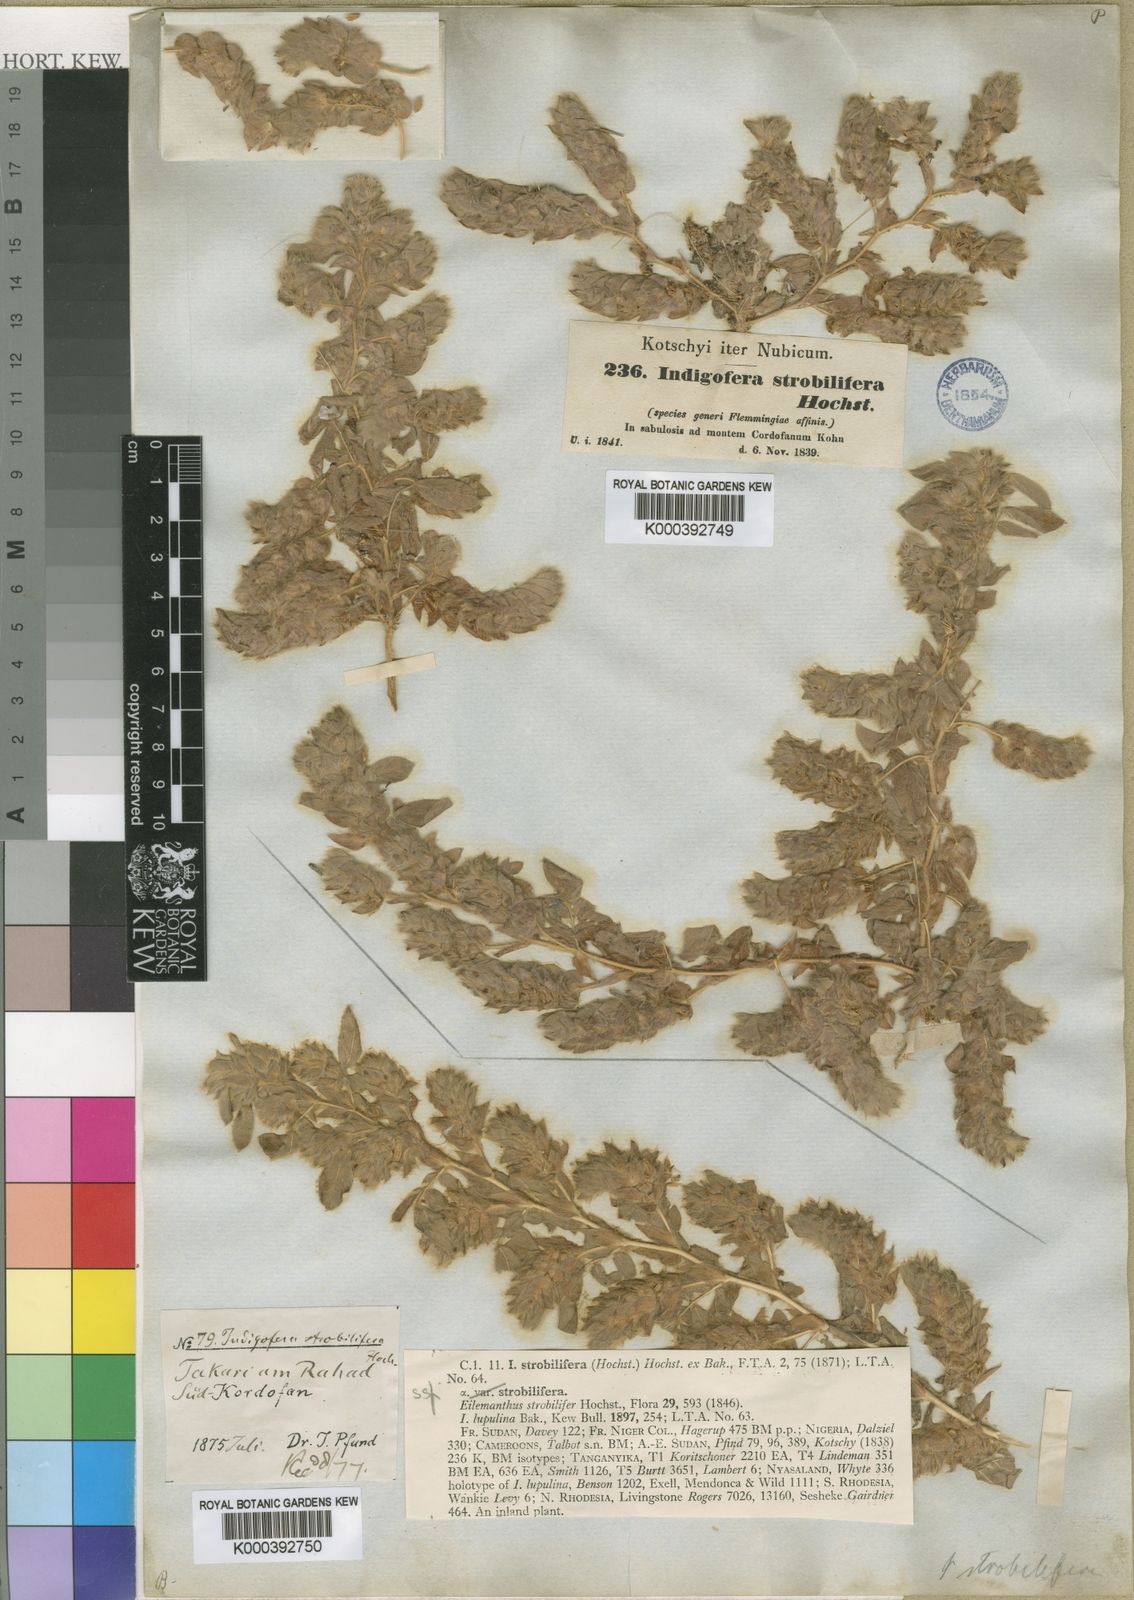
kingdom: Plantae
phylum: Tracheophyta
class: Magnoliopsida
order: Fabales
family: Fabaceae
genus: Indigofera
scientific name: Indigofera strobilifera
